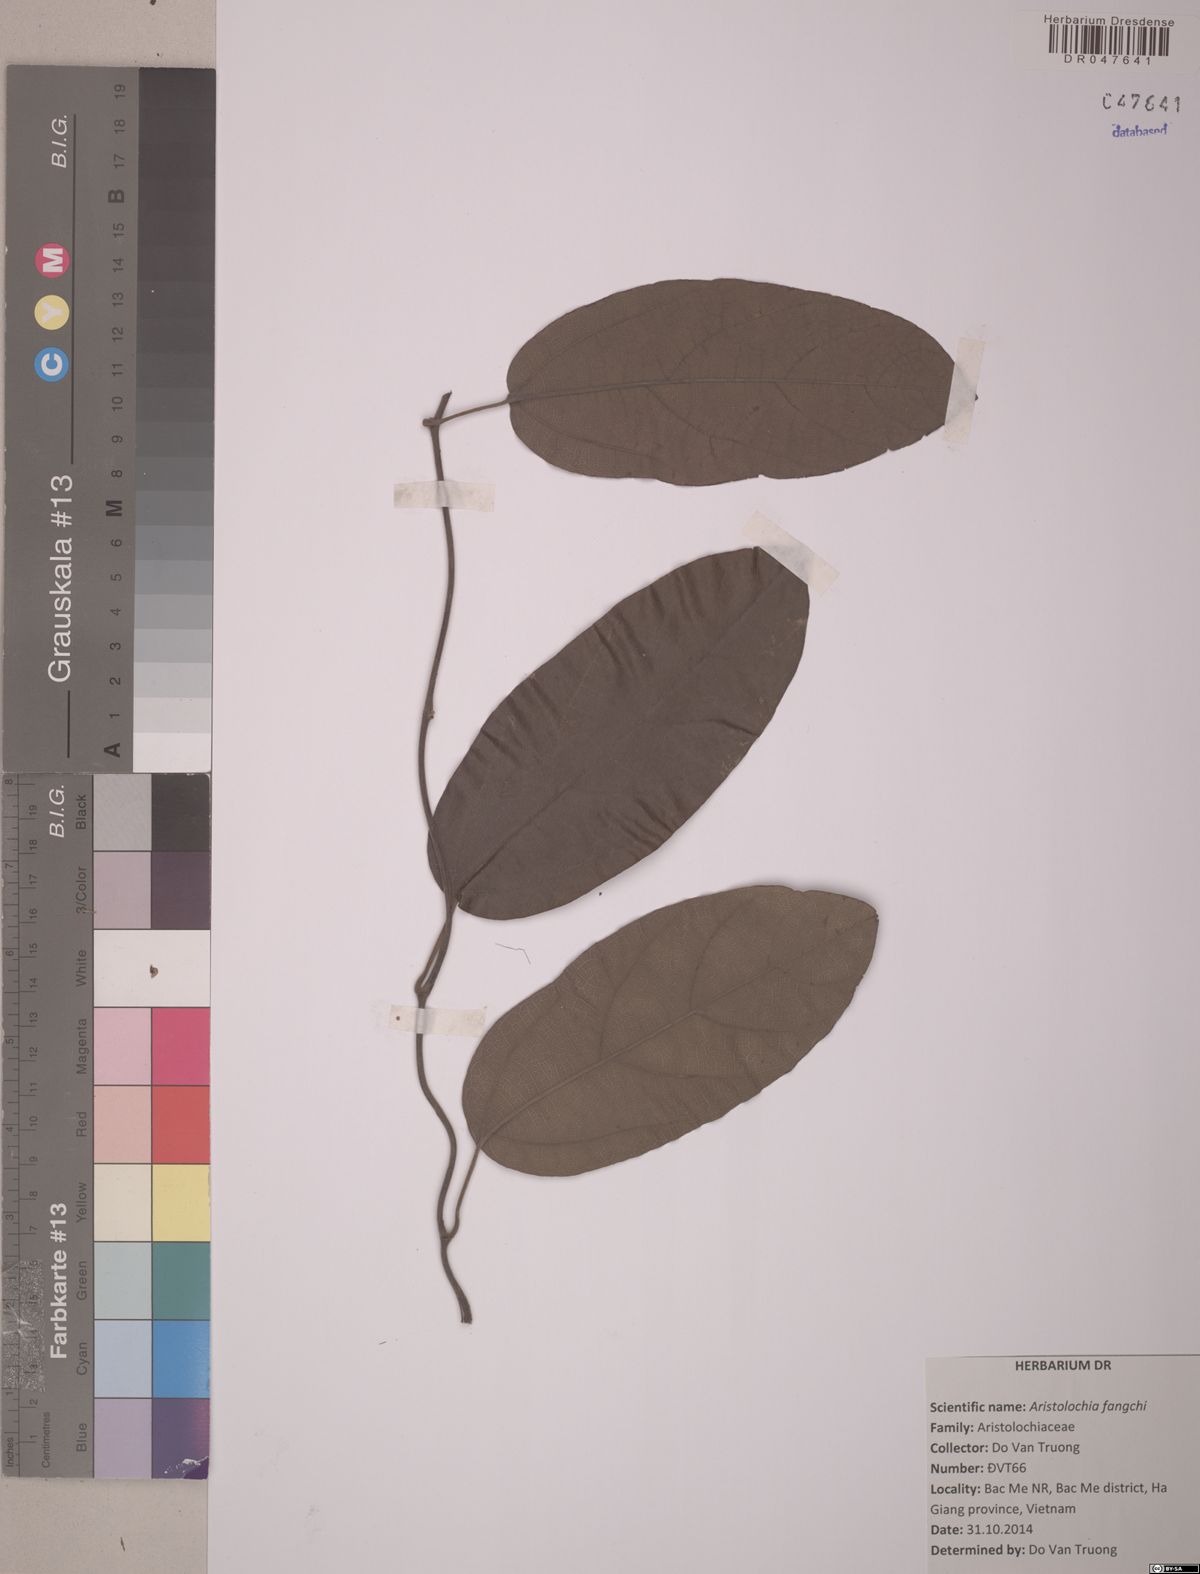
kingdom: Plantae
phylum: Tracheophyta
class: Magnoliopsida
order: Piperales
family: Aristolochiaceae
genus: Isotrema
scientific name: Isotrema fangchi
